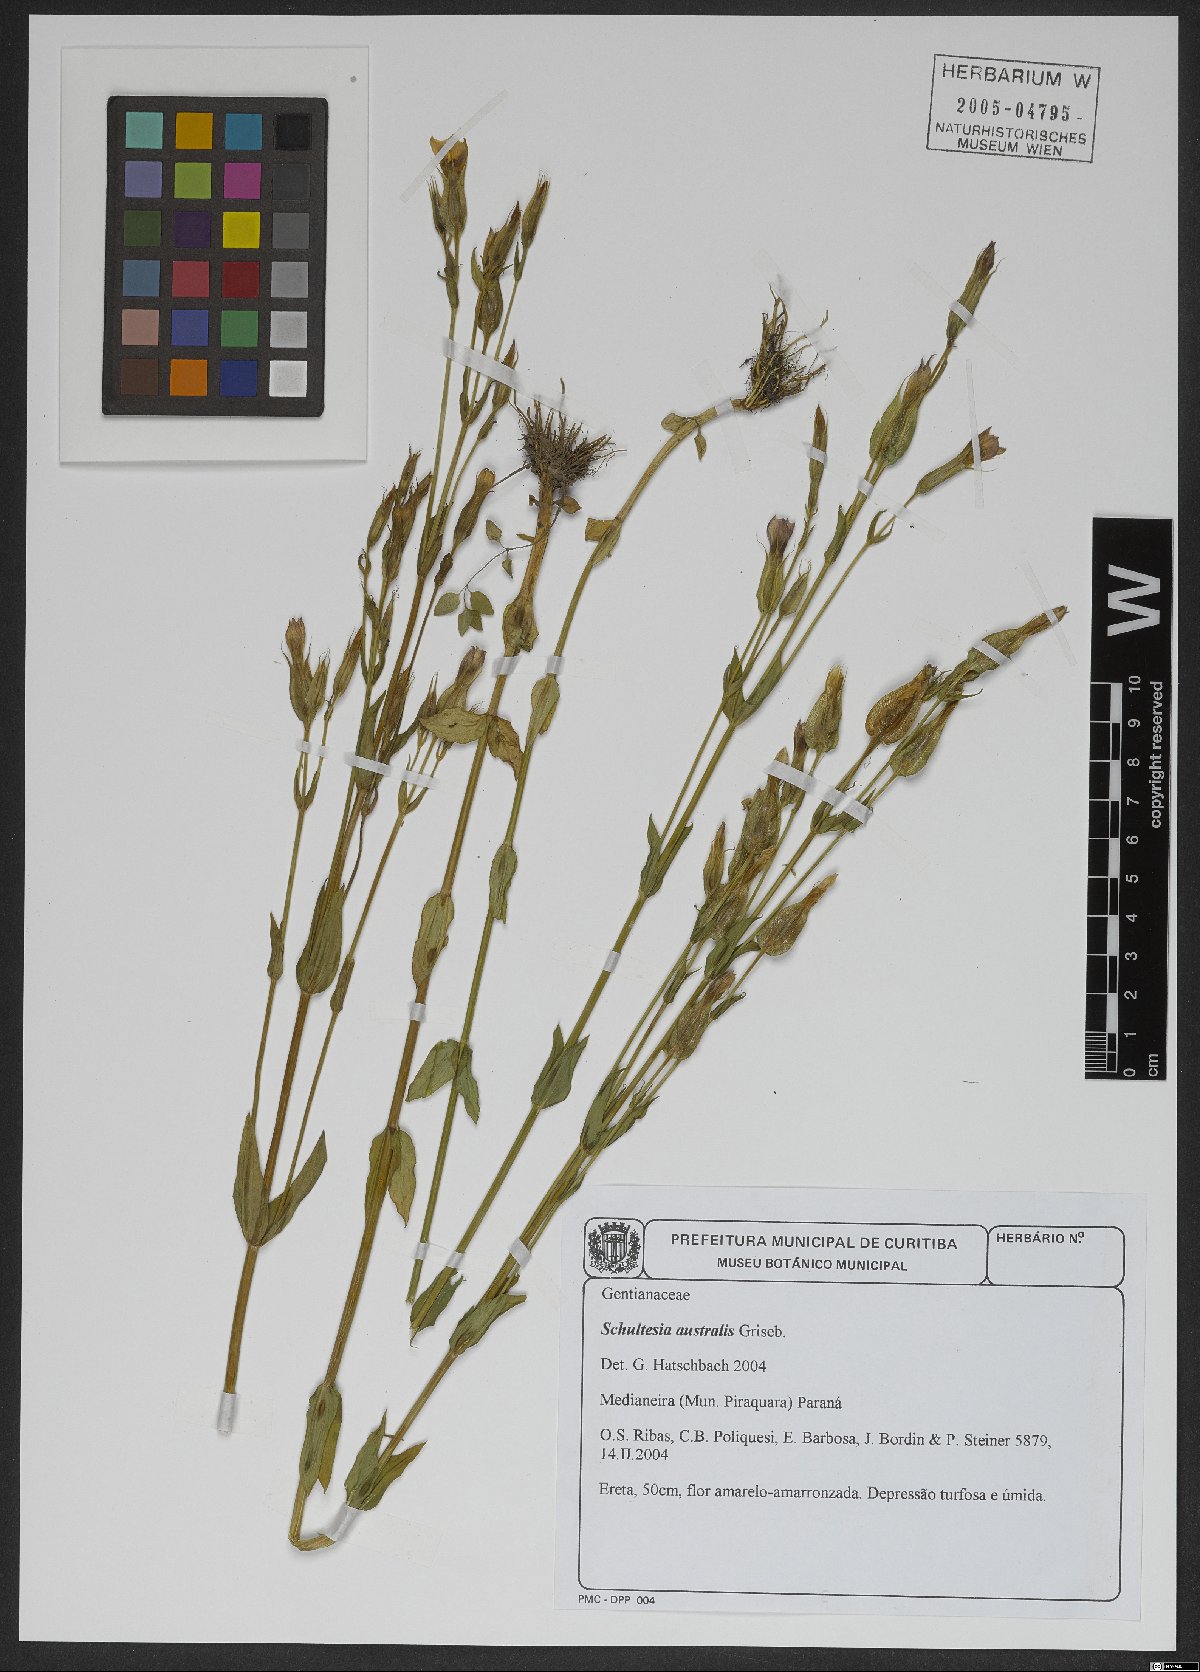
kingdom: Plantae
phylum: Tracheophyta
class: Magnoliopsida
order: Gentianales
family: Gentianaceae
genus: Schultesia
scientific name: Schultesia australis
